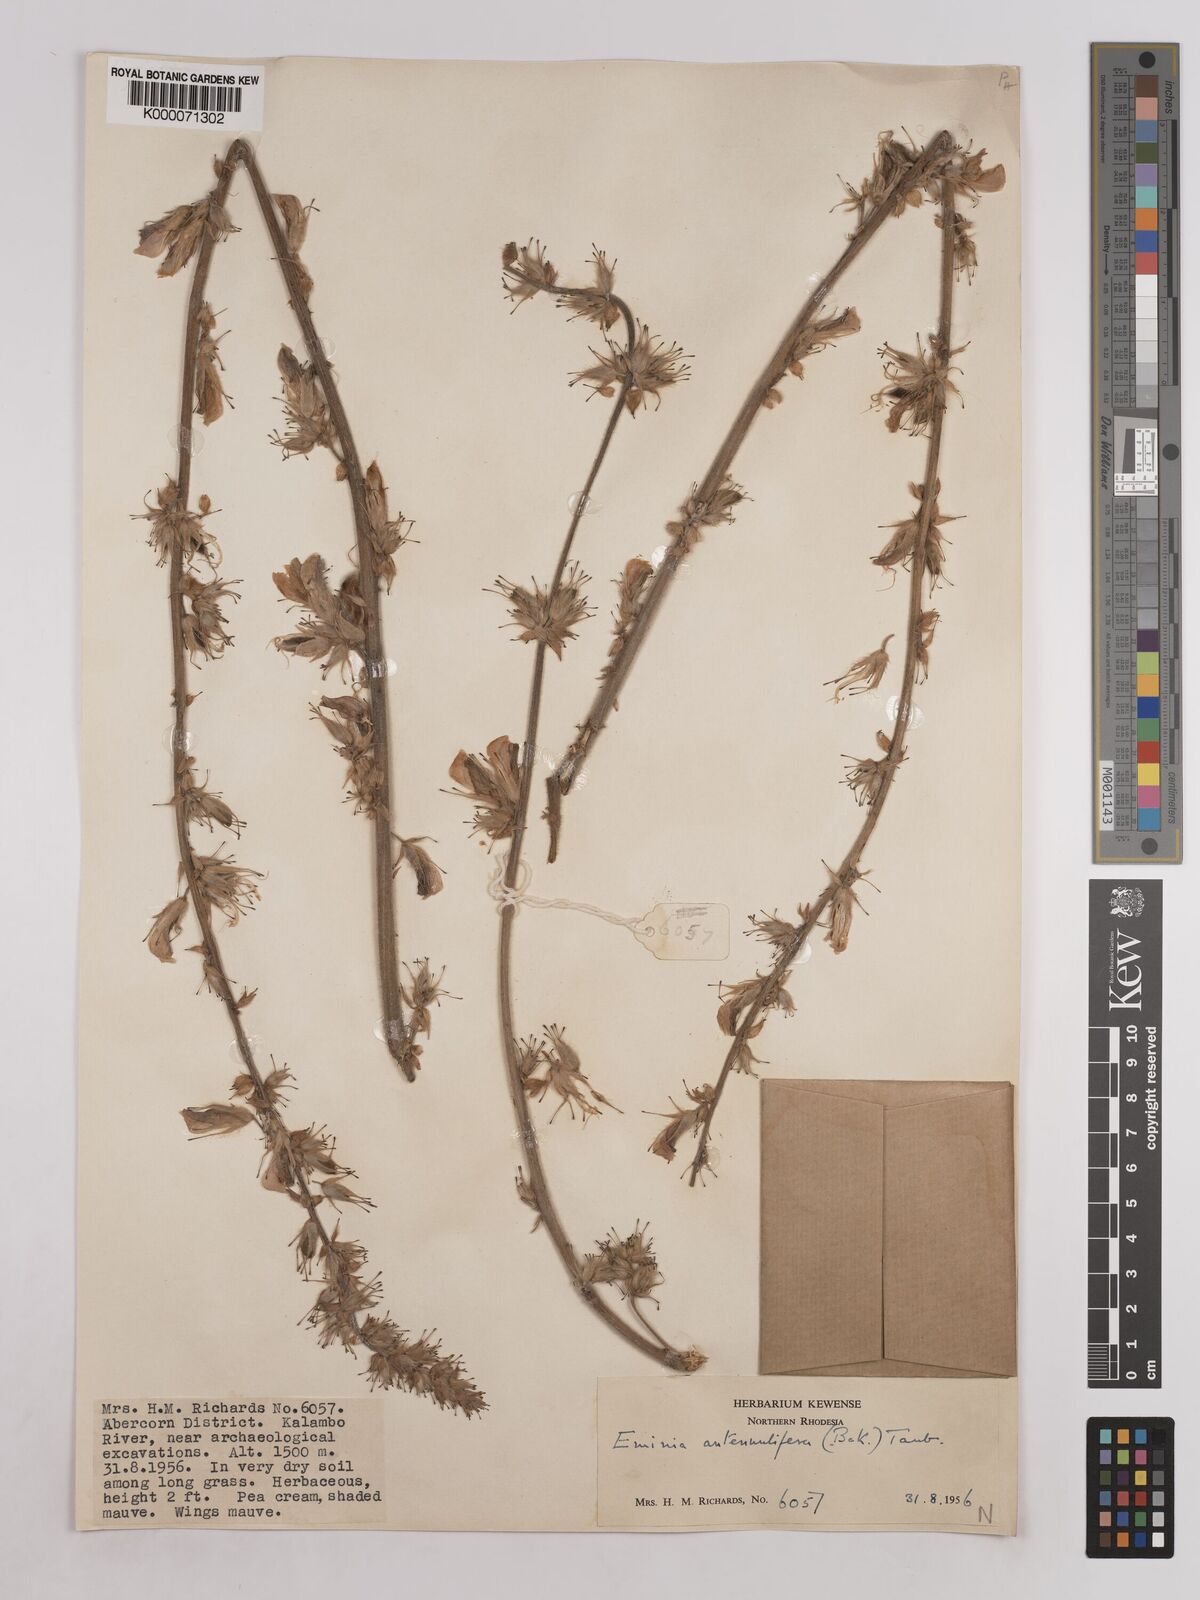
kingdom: Plantae
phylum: Tracheophyta
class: Magnoliopsida
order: Fabales
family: Fabaceae
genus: Eminia
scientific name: Eminia antennulifera
